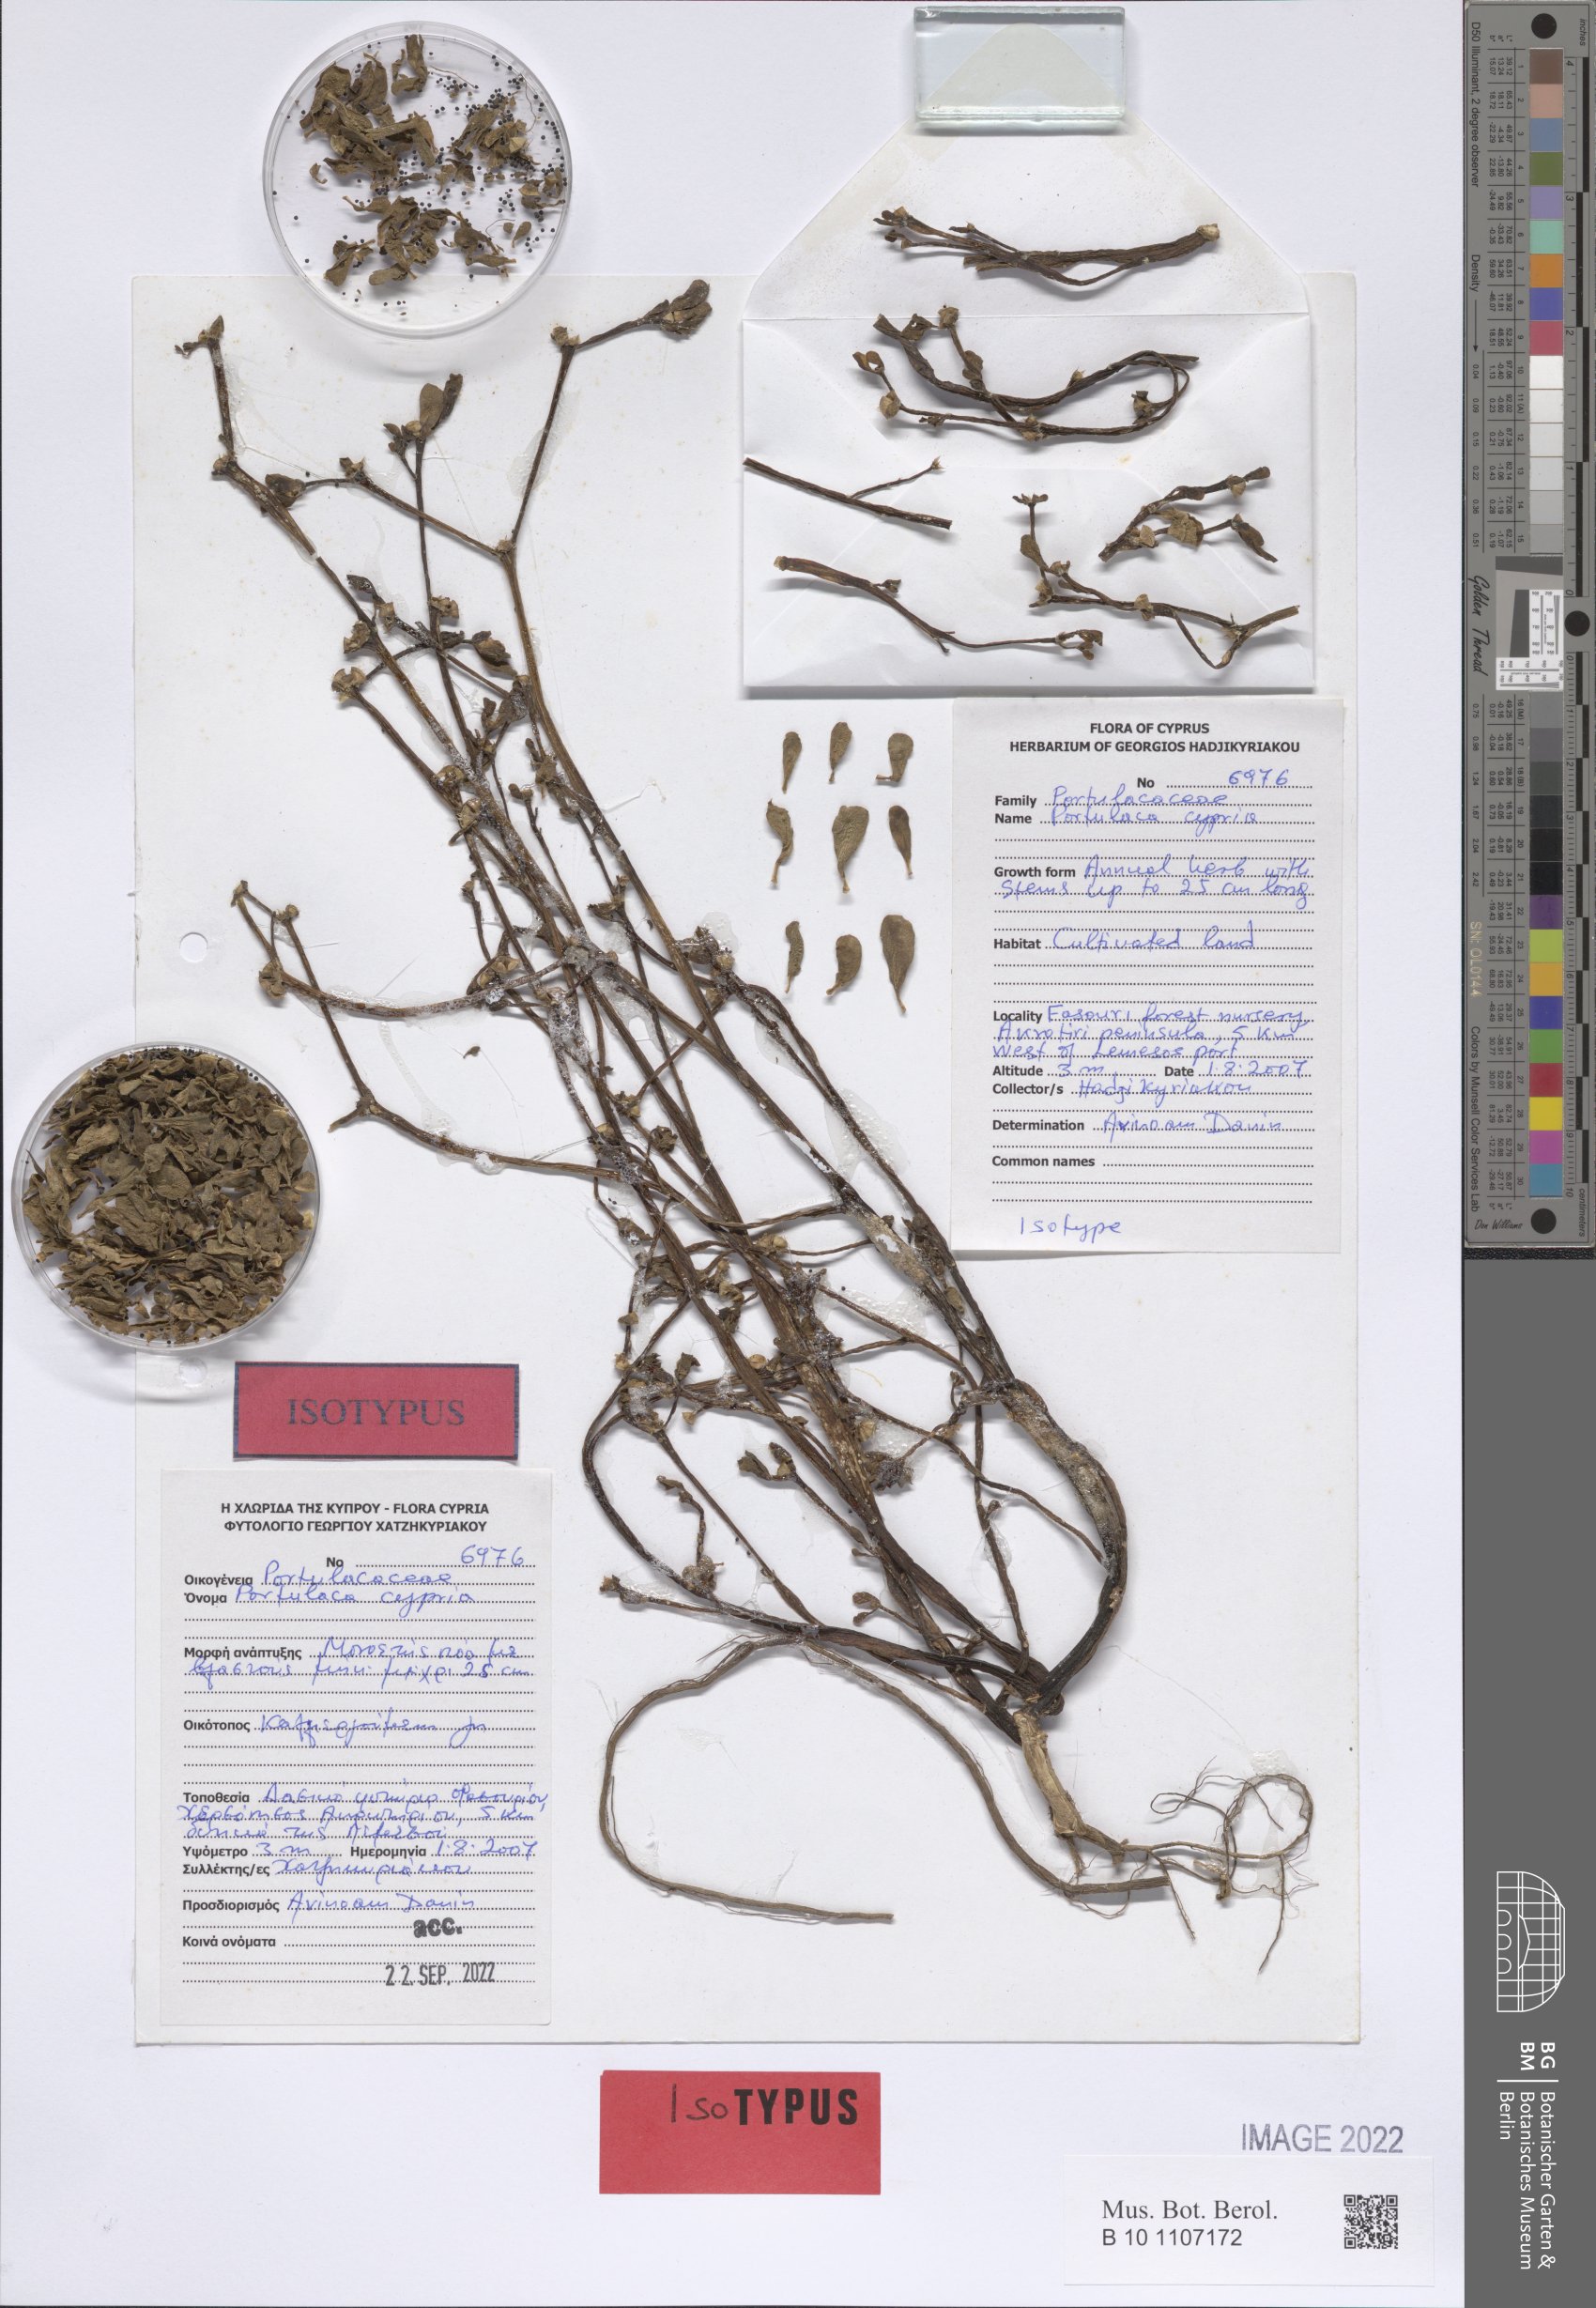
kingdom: Plantae
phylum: Tracheophyta
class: Magnoliopsida
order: Caryophyllales
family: Portulacaceae
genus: Portulaca
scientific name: Portulaca cypria
